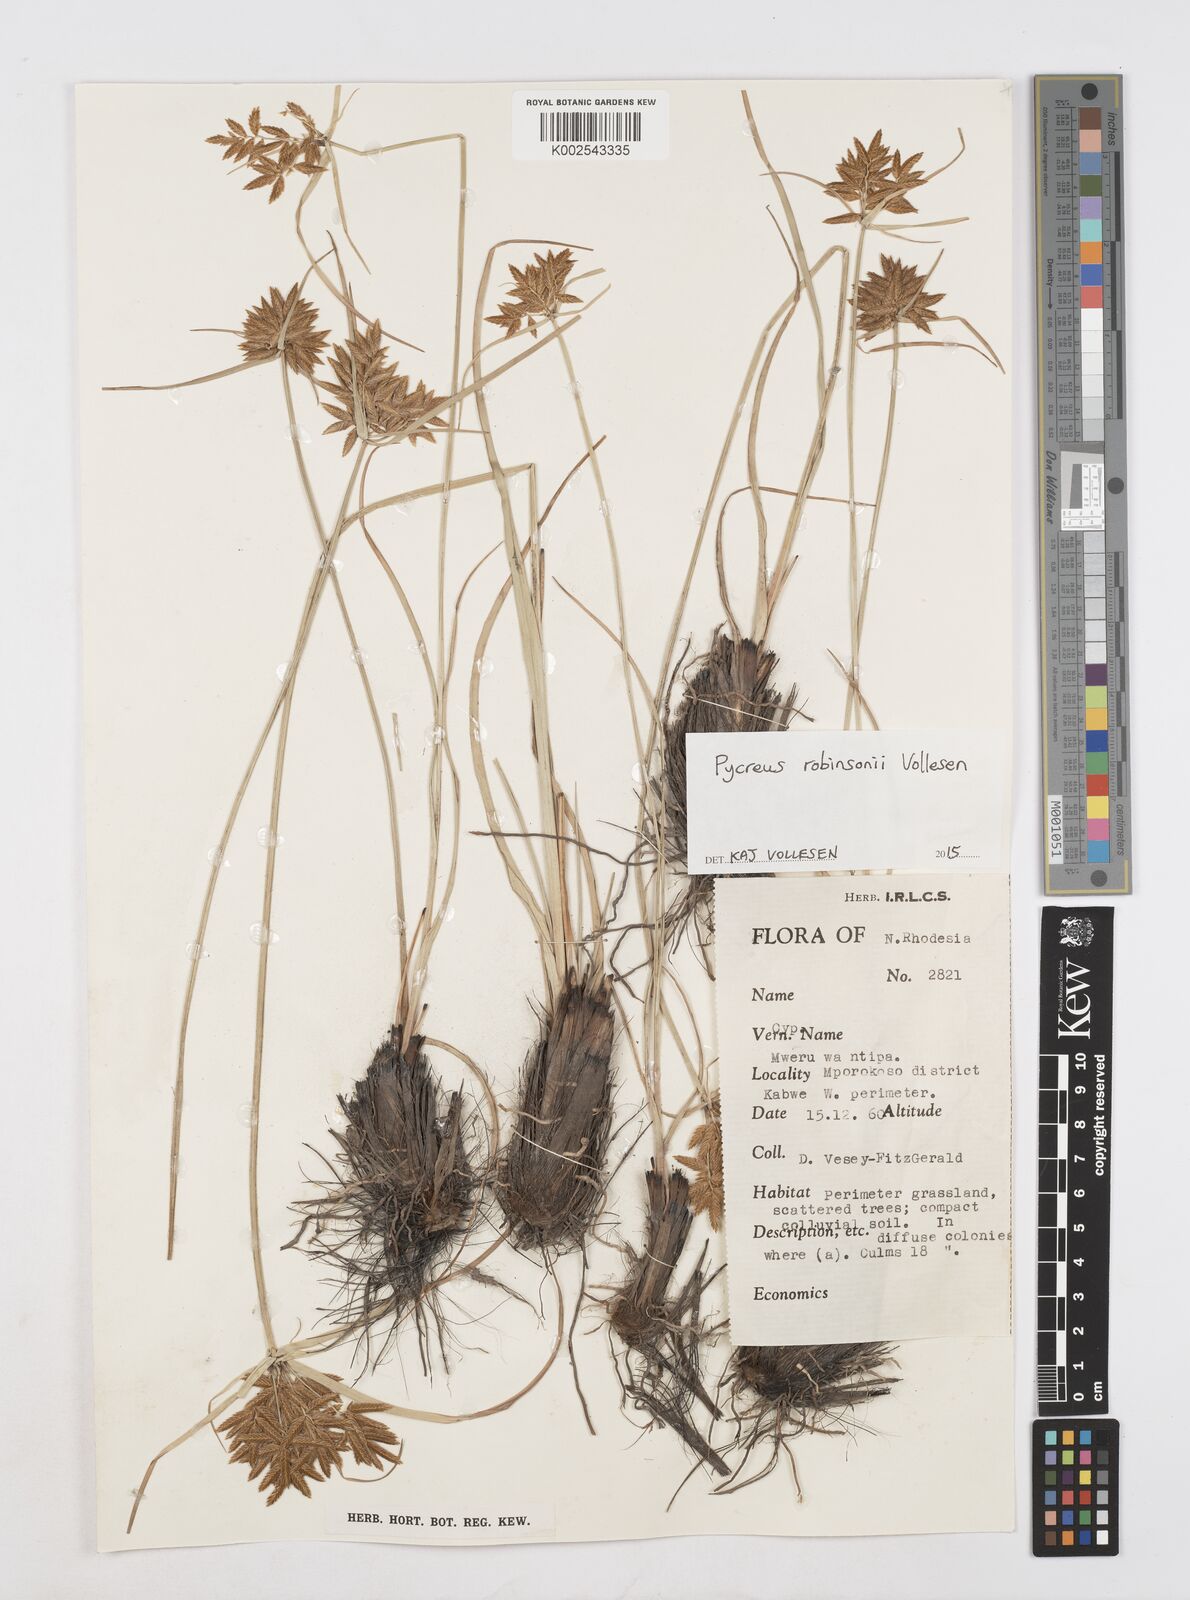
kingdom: Plantae
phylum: Tracheophyta
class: Liliopsida
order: Poales
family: Cyperaceae
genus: Cyperus
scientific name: Cyperus tenuiculmis
